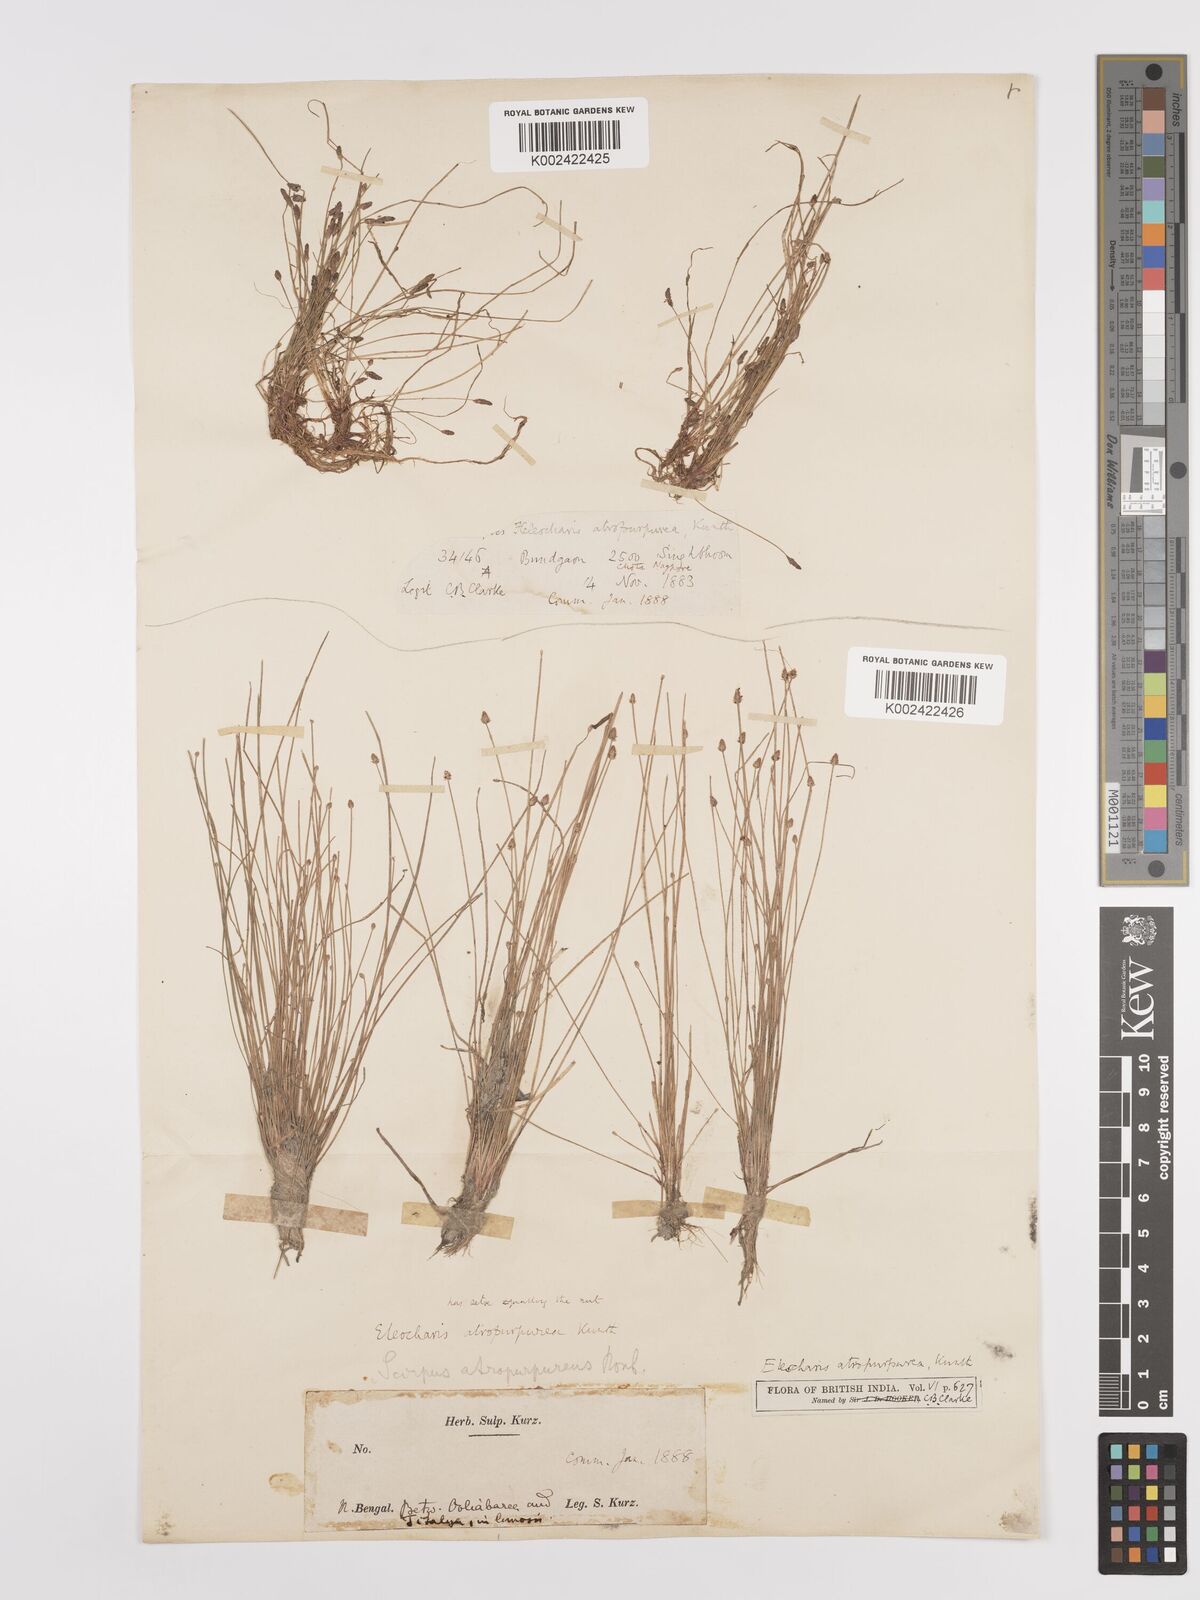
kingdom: Plantae
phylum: Tracheophyta
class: Liliopsida
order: Poales
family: Cyperaceae
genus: Eleocharis
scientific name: Eleocharis atropurpurea
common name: Purple spikerush
